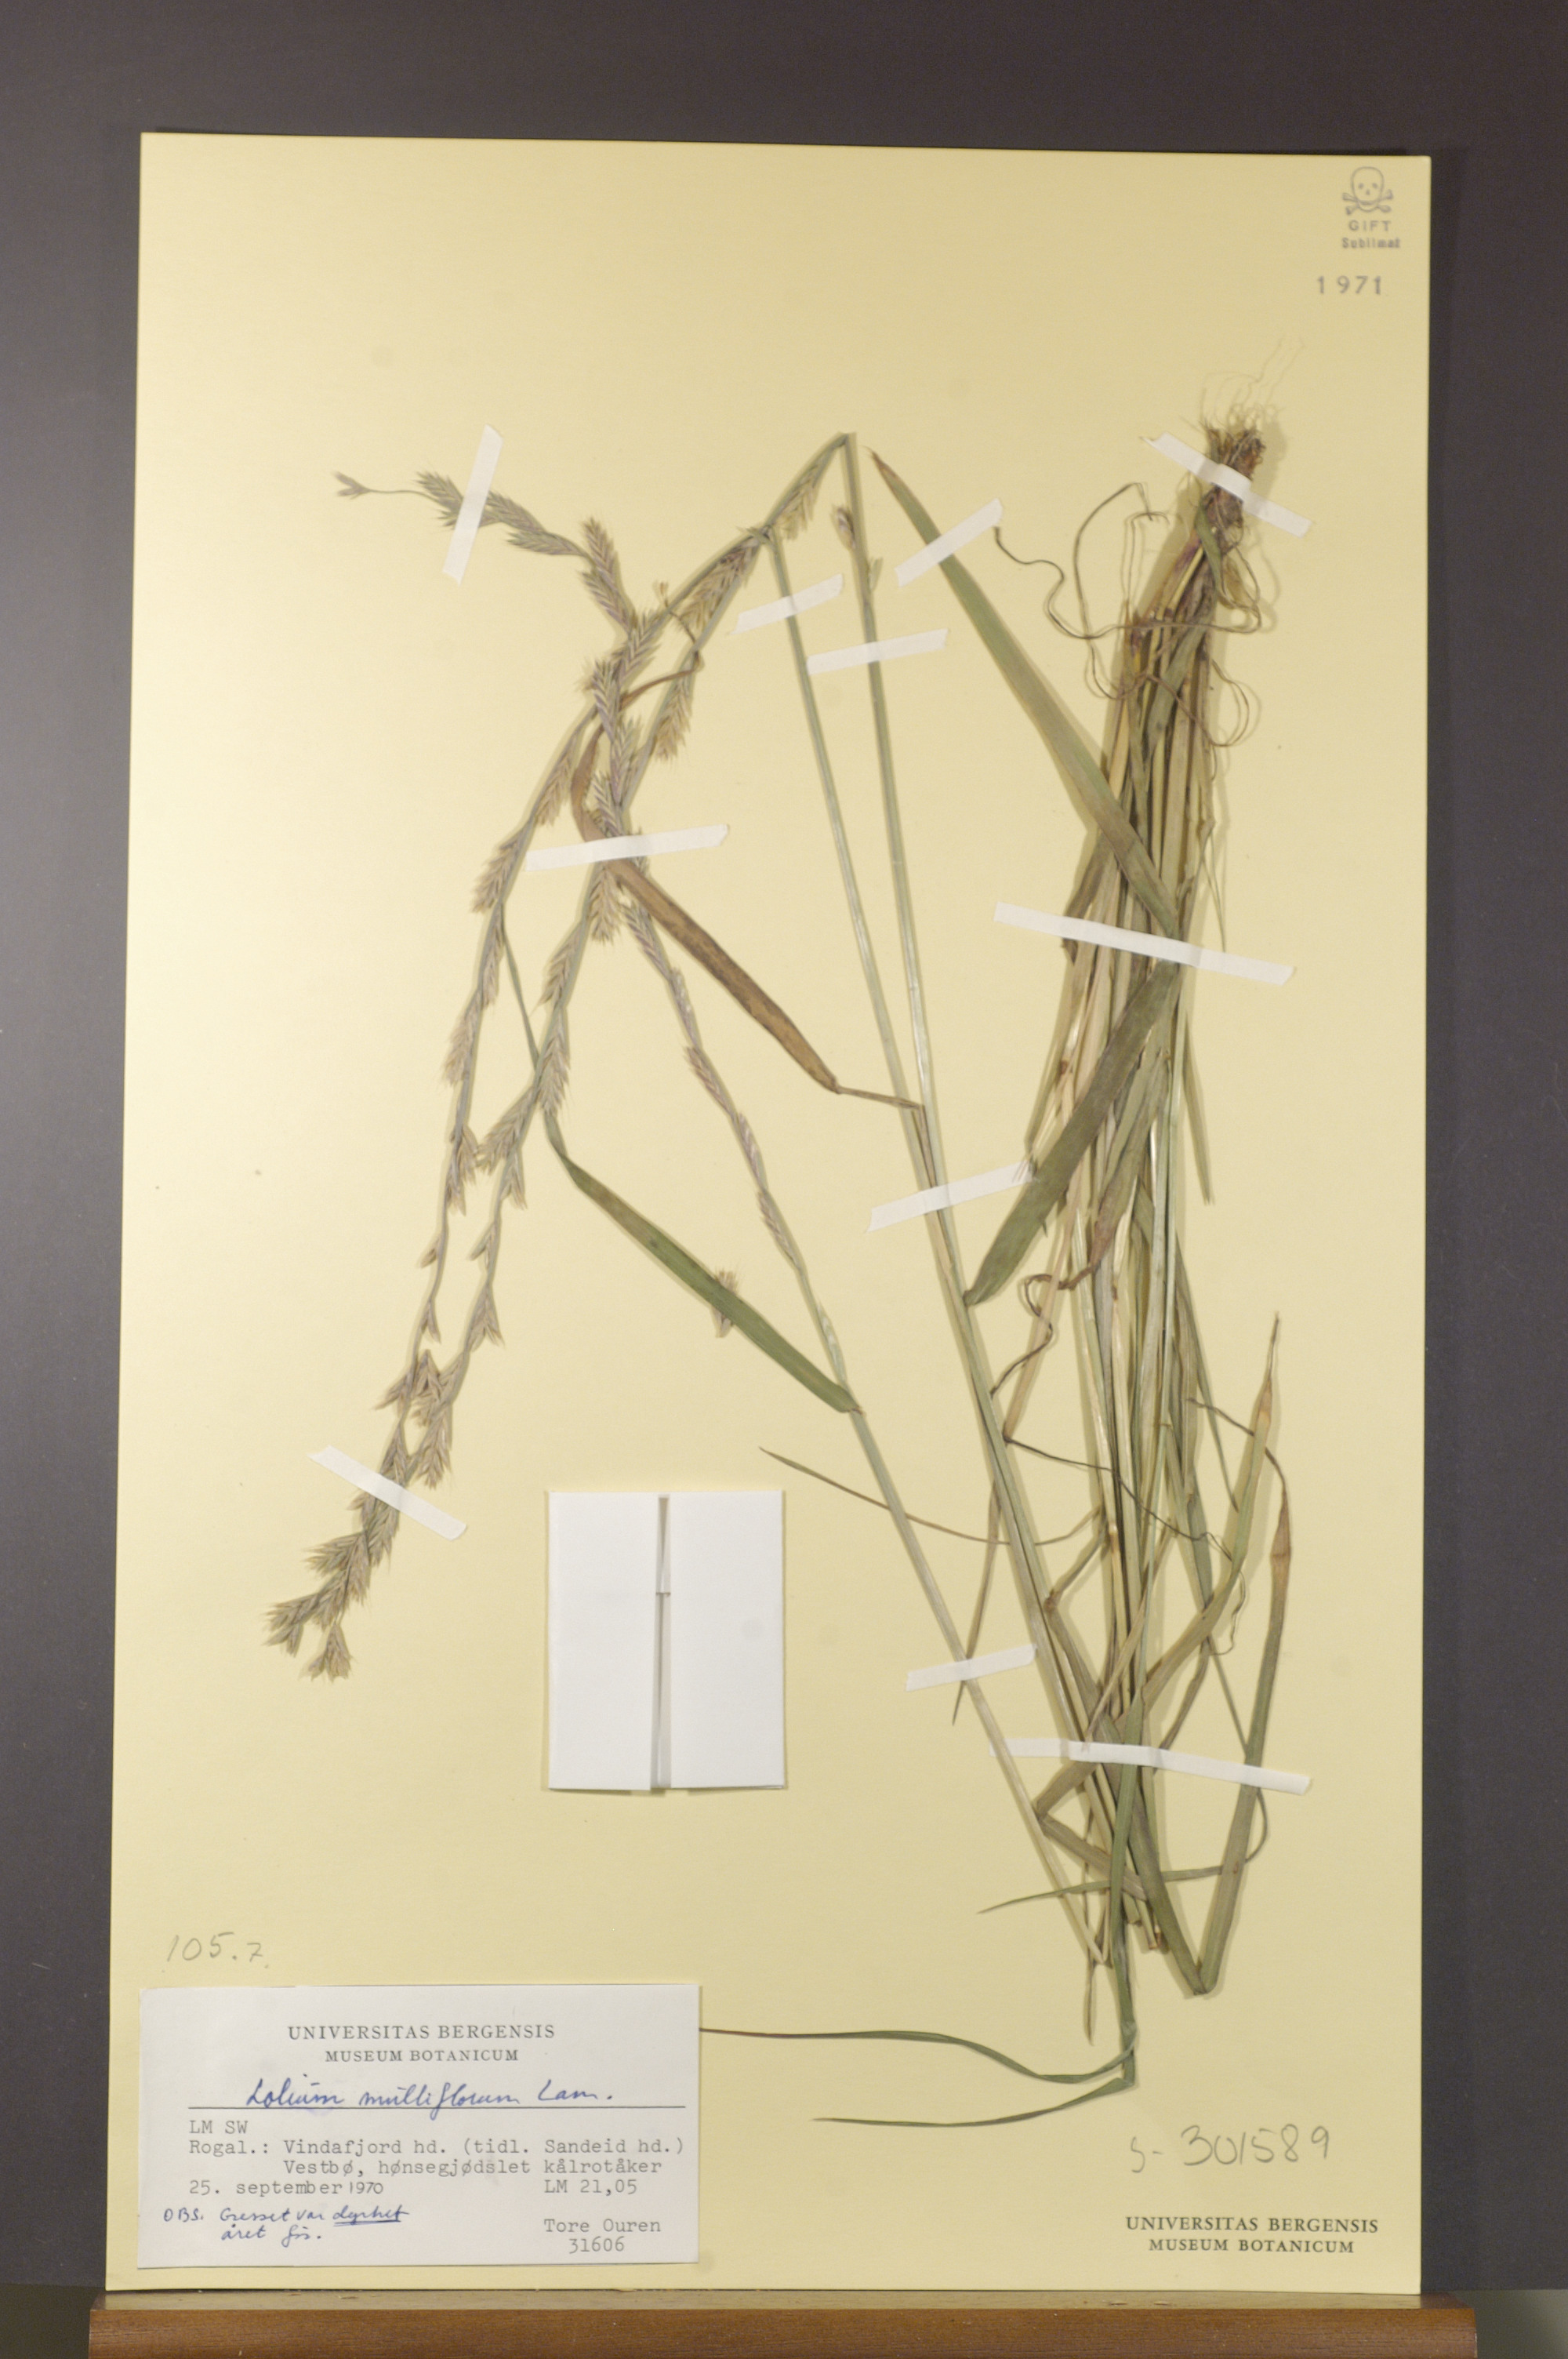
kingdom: Plantae
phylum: Tracheophyta
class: Liliopsida
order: Poales
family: Poaceae
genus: Lolium
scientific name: Lolium multiflorum
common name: Annual ryegrass
